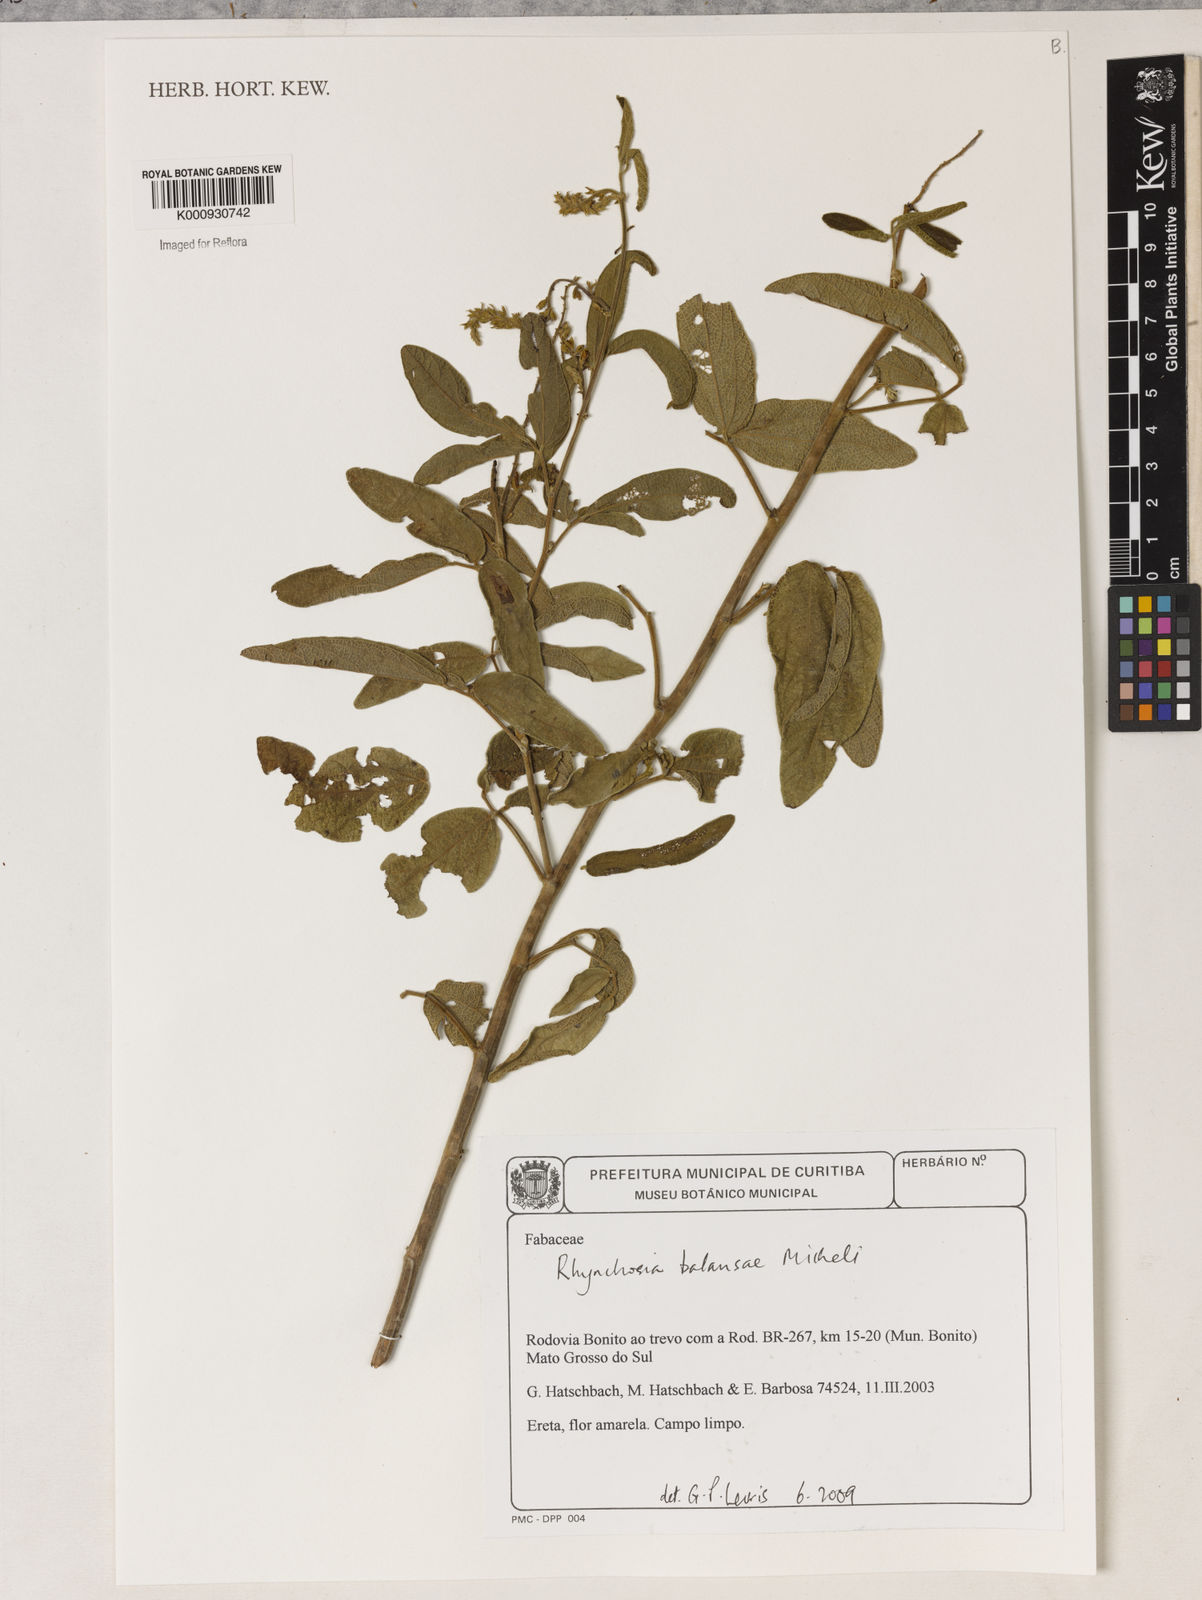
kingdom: Plantae
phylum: Tracheophyta
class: Magnoliopsida
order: Fabales
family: Fabaceae
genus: Rhynchosia
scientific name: Rhynchosia balansae
